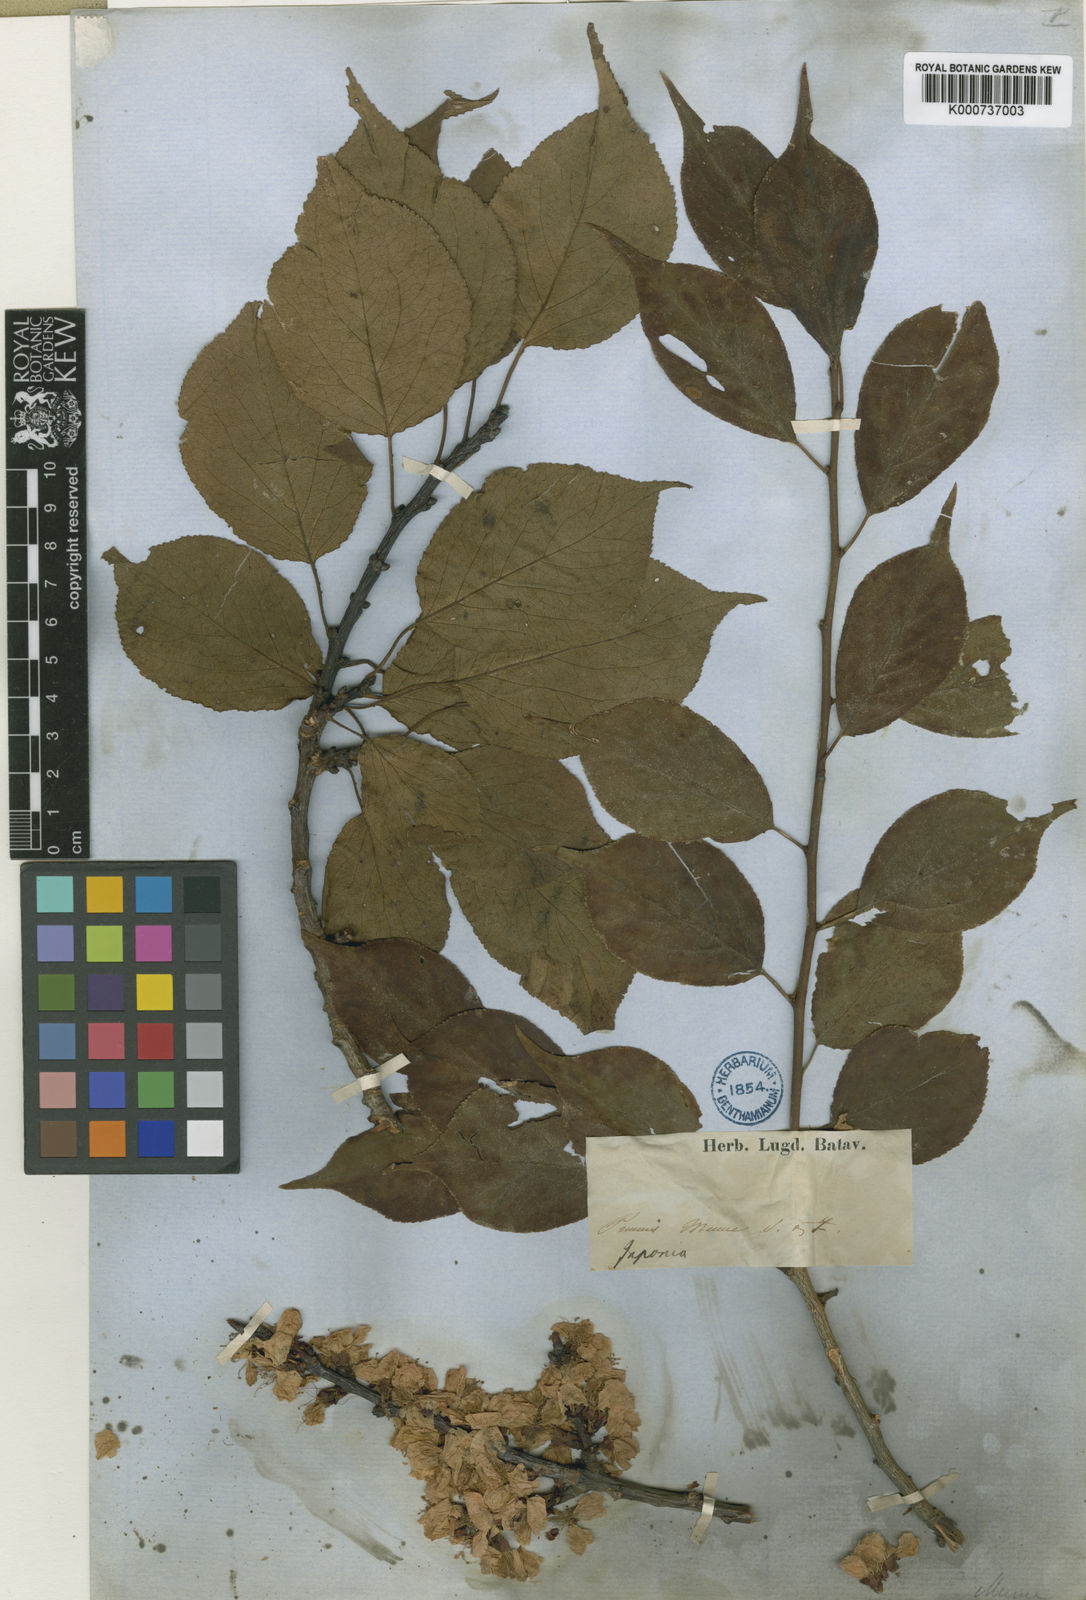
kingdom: Plantae
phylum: Tracheophyta
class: Magnoliopsida
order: Rosales
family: Rosaceae
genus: Prunus
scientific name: Prunus mume
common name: Japanese apricot
